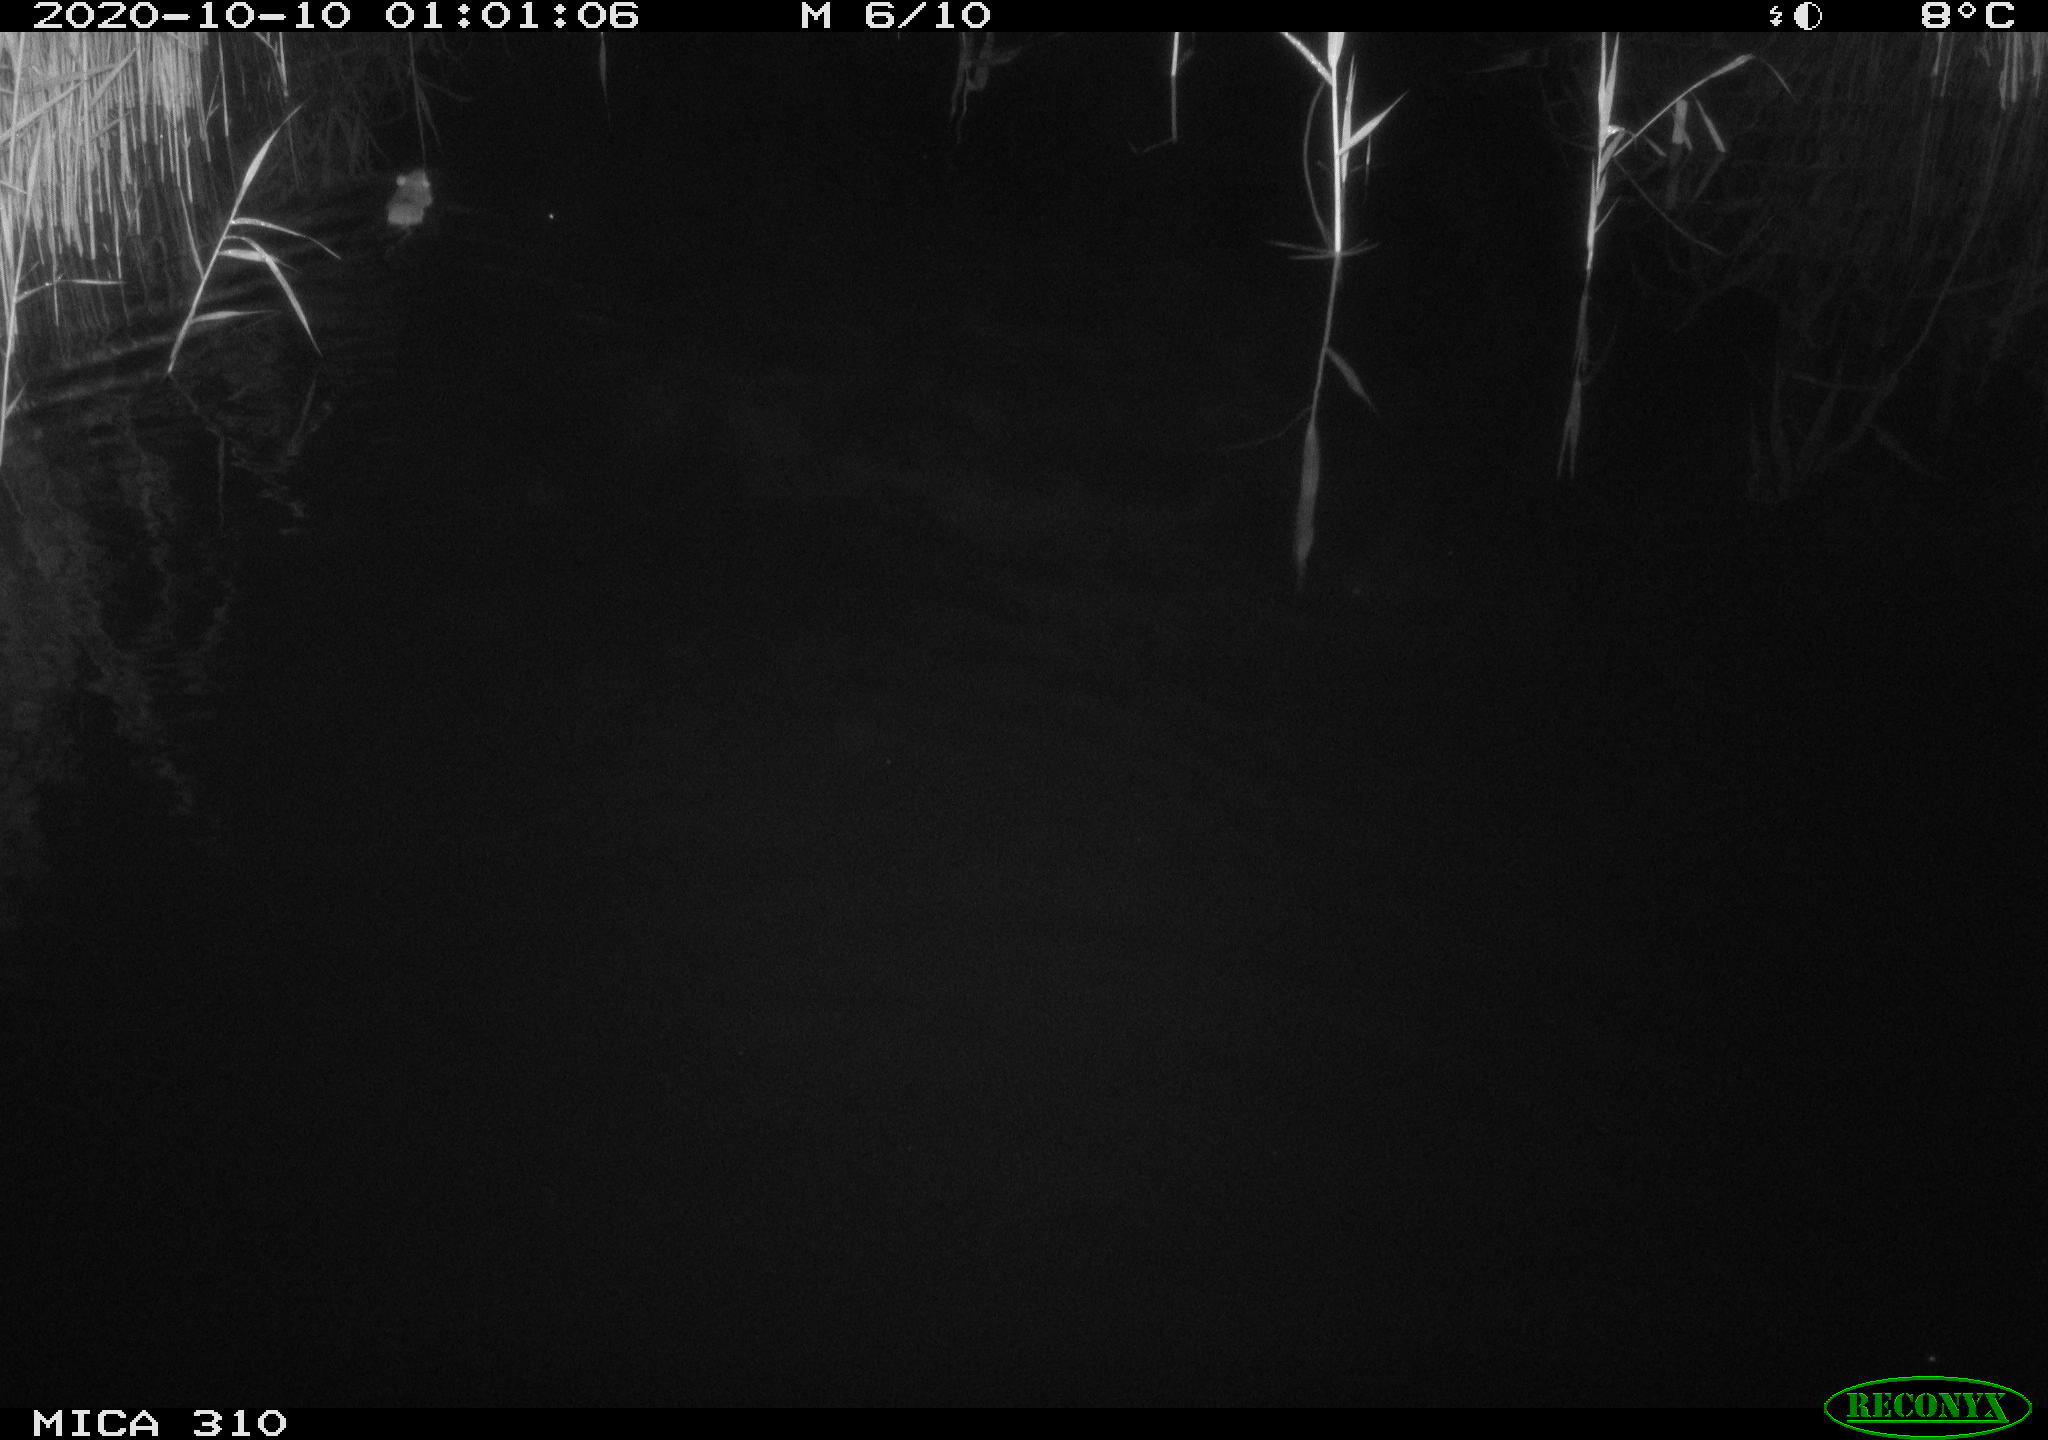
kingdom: Animalia
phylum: Chordata
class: Mammalia
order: Rodentia
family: Muridae
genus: Rattus
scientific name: Rattus norvegicus
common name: Brown rat
